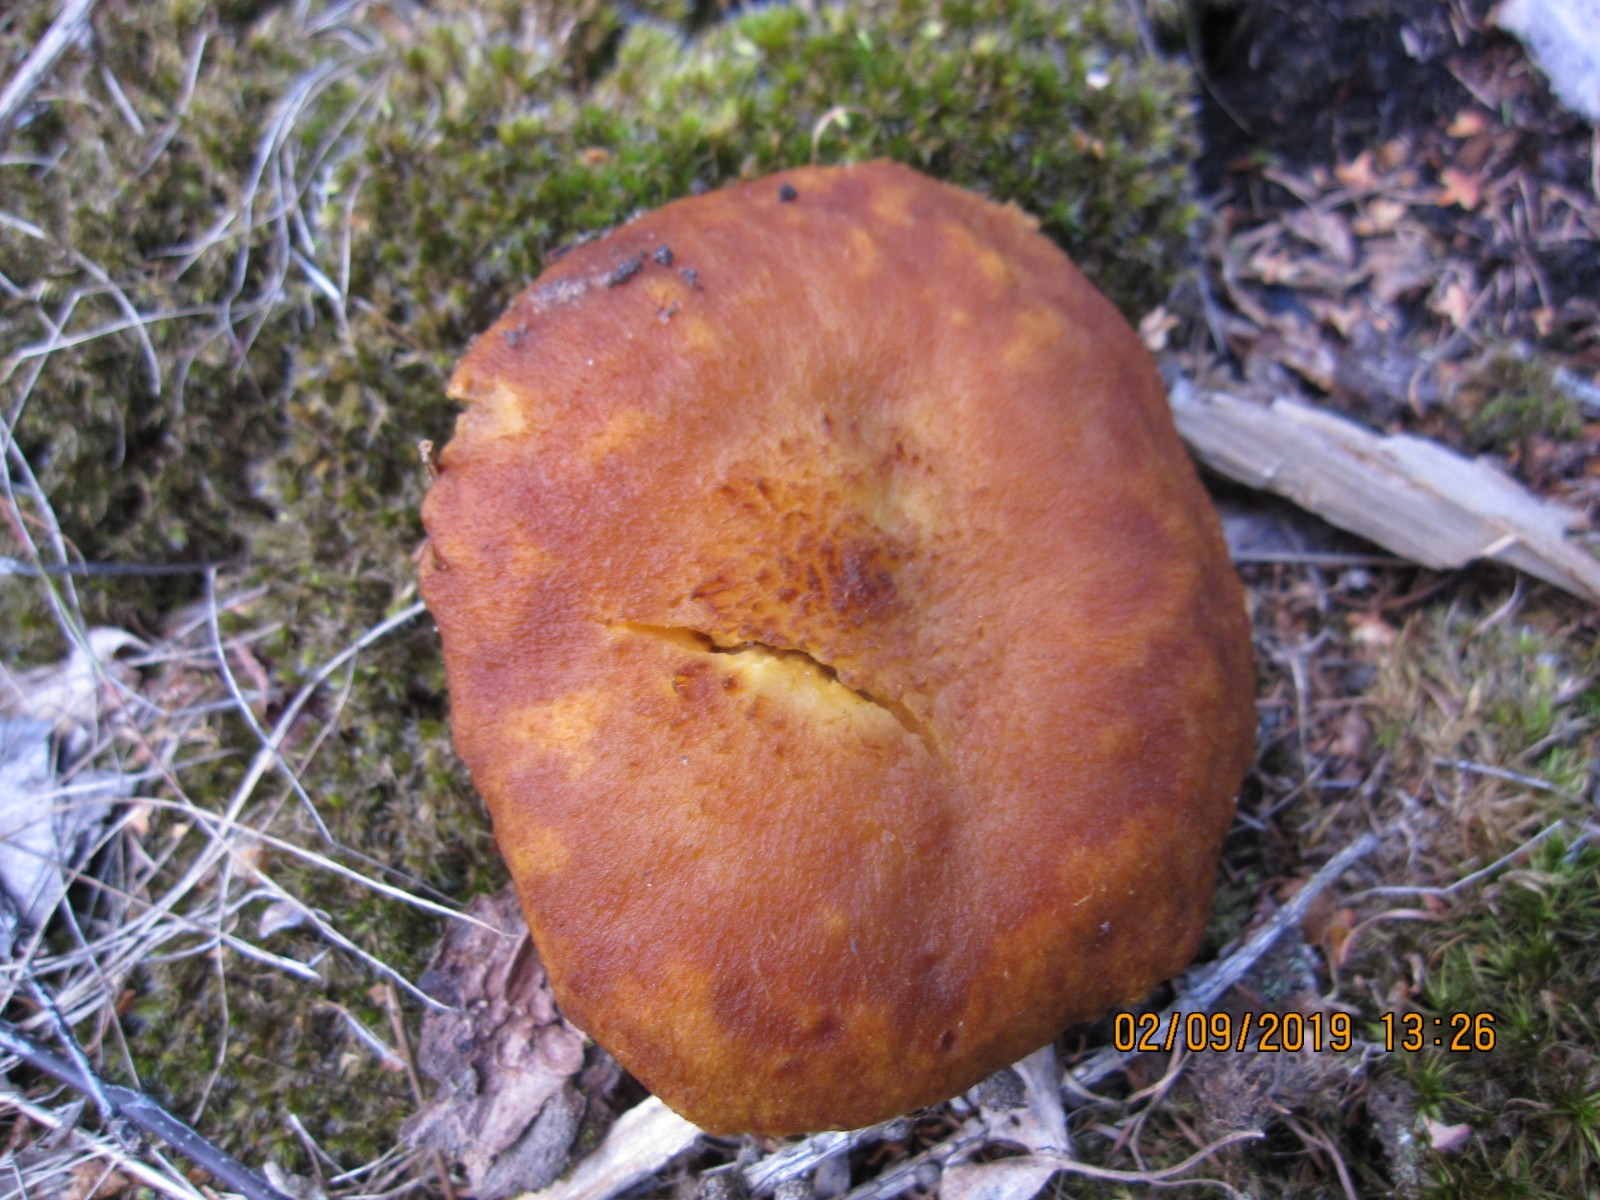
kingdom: Fungi
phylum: Basidiomycota
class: Agaricomycetes
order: Boletales
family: Suillaceae
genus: Suillus
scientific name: Suillus cavipes
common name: hulstokket slimrørhat
